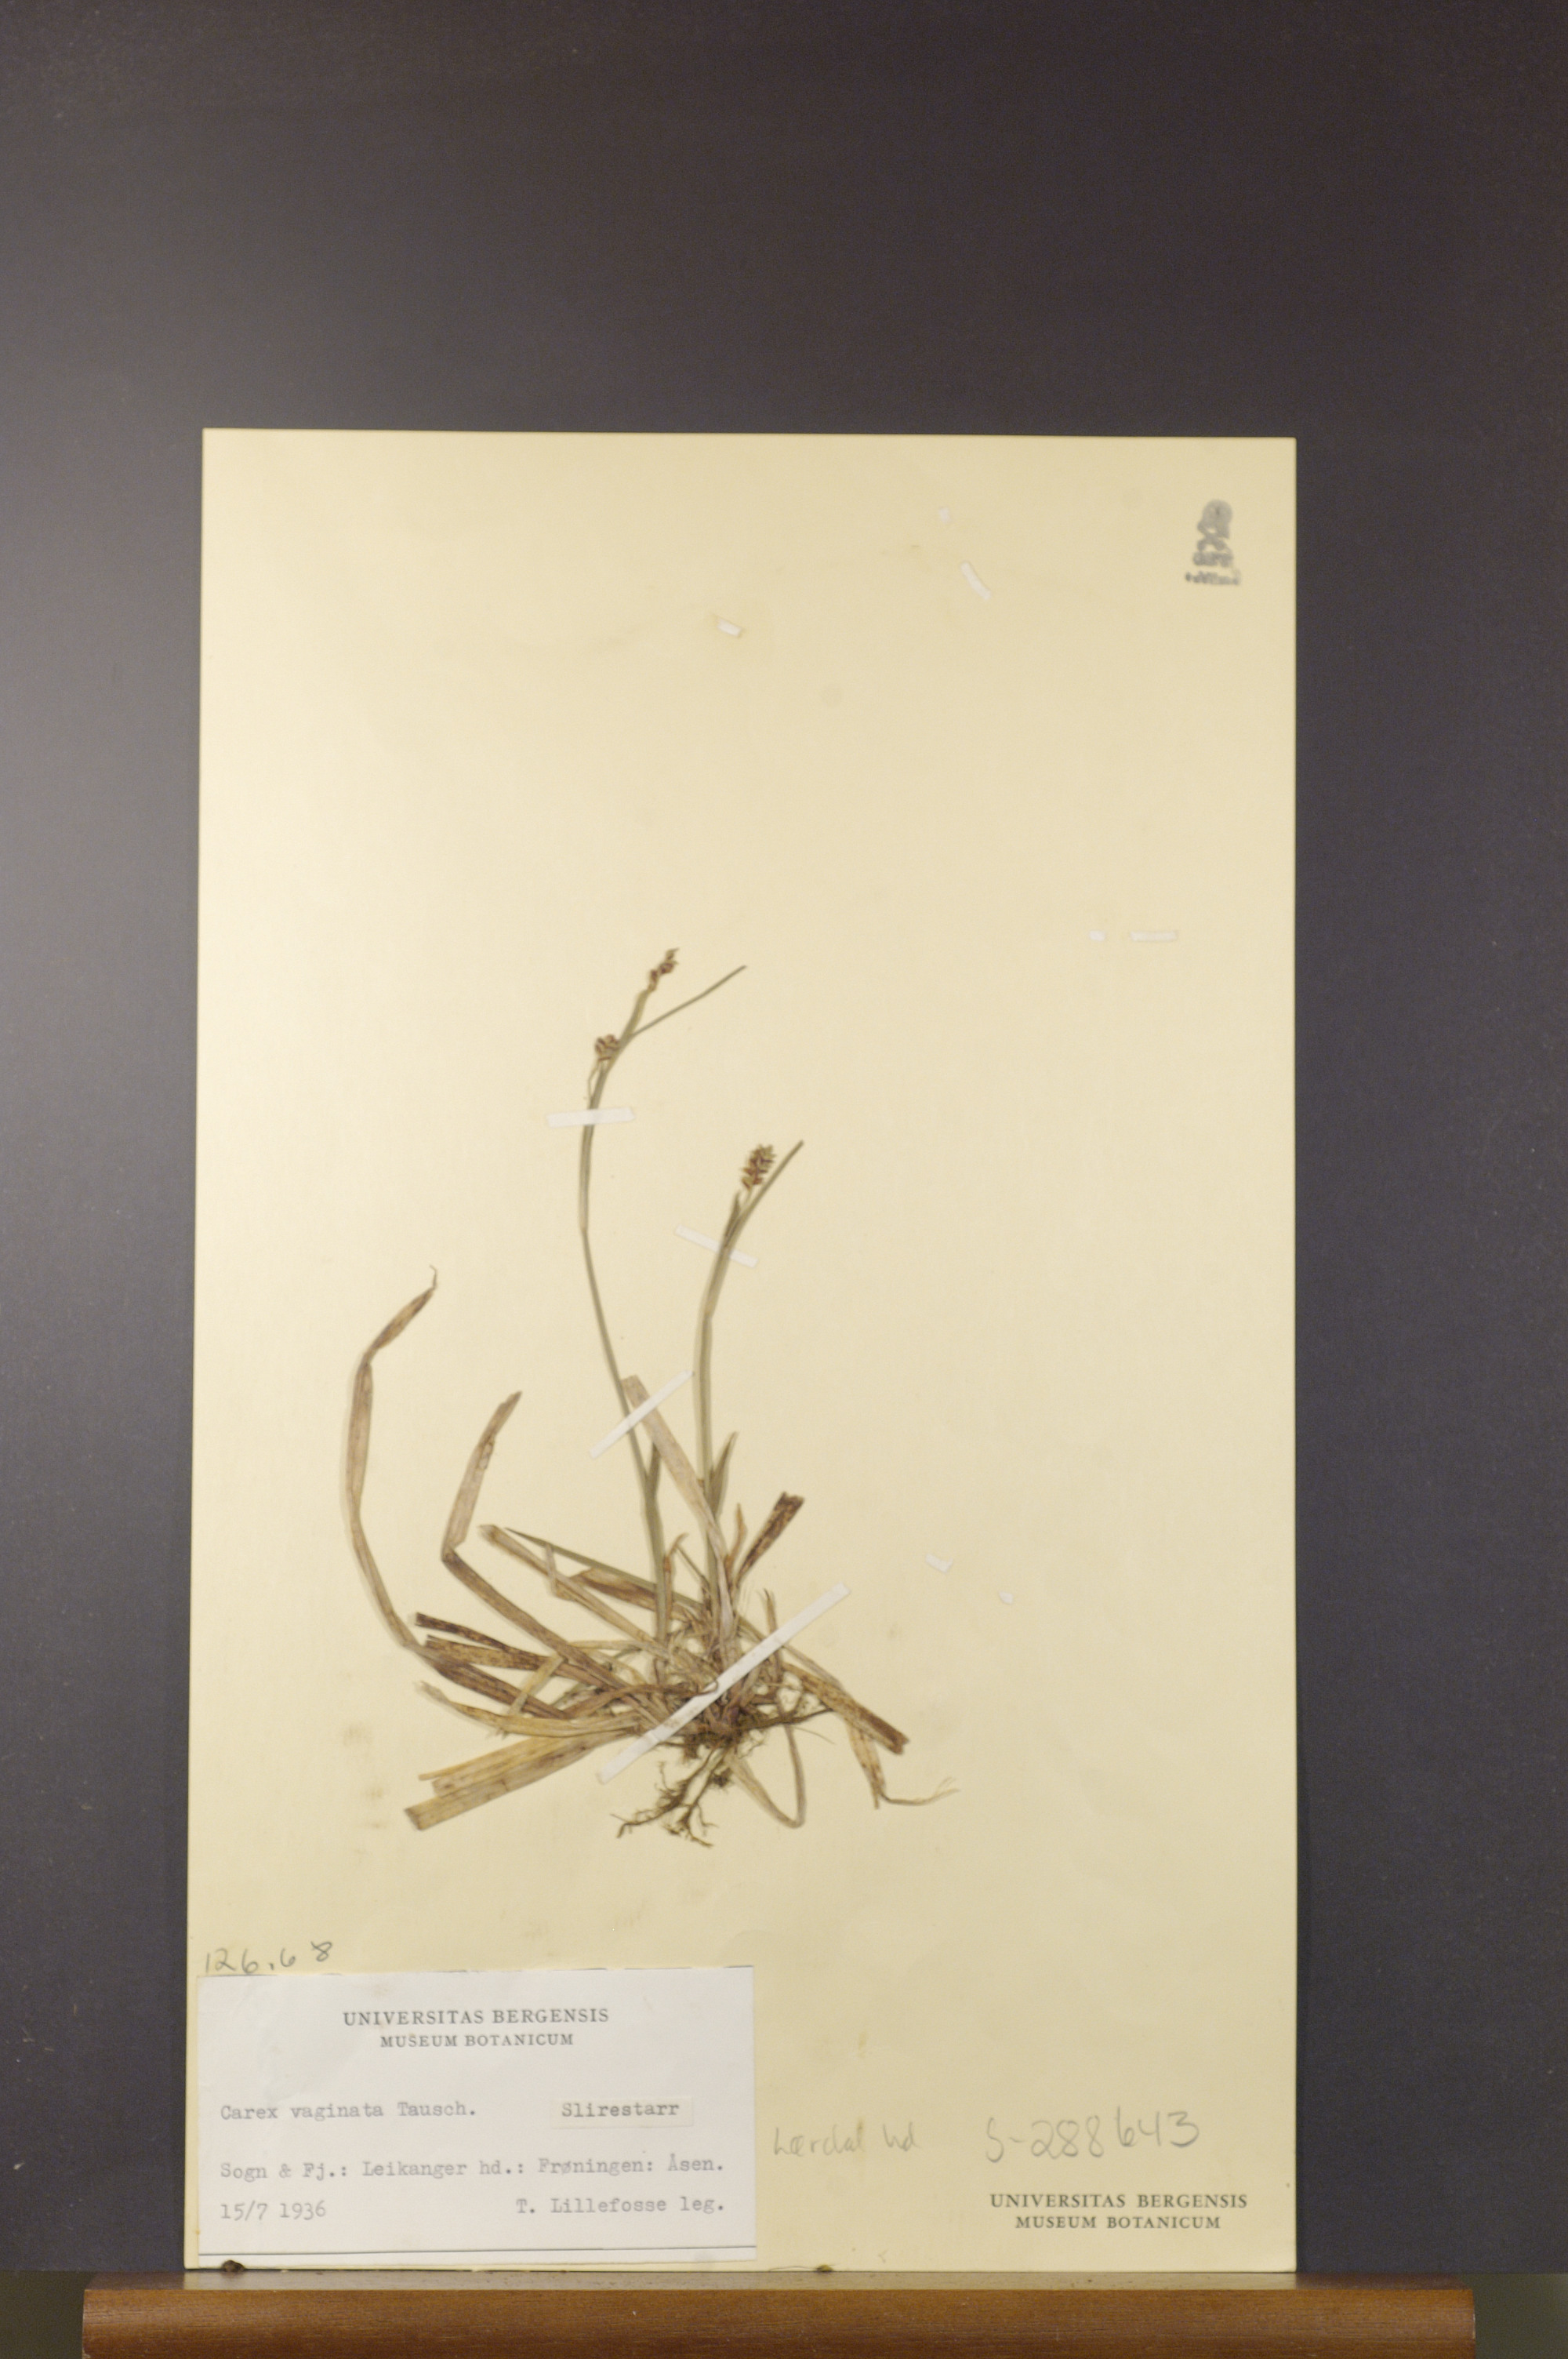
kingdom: Plantae
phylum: Tracheophyta
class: Liliopsida
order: Poales
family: Cyperaceae
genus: Carex
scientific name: Carex vaginata
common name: Sheathed sedge
